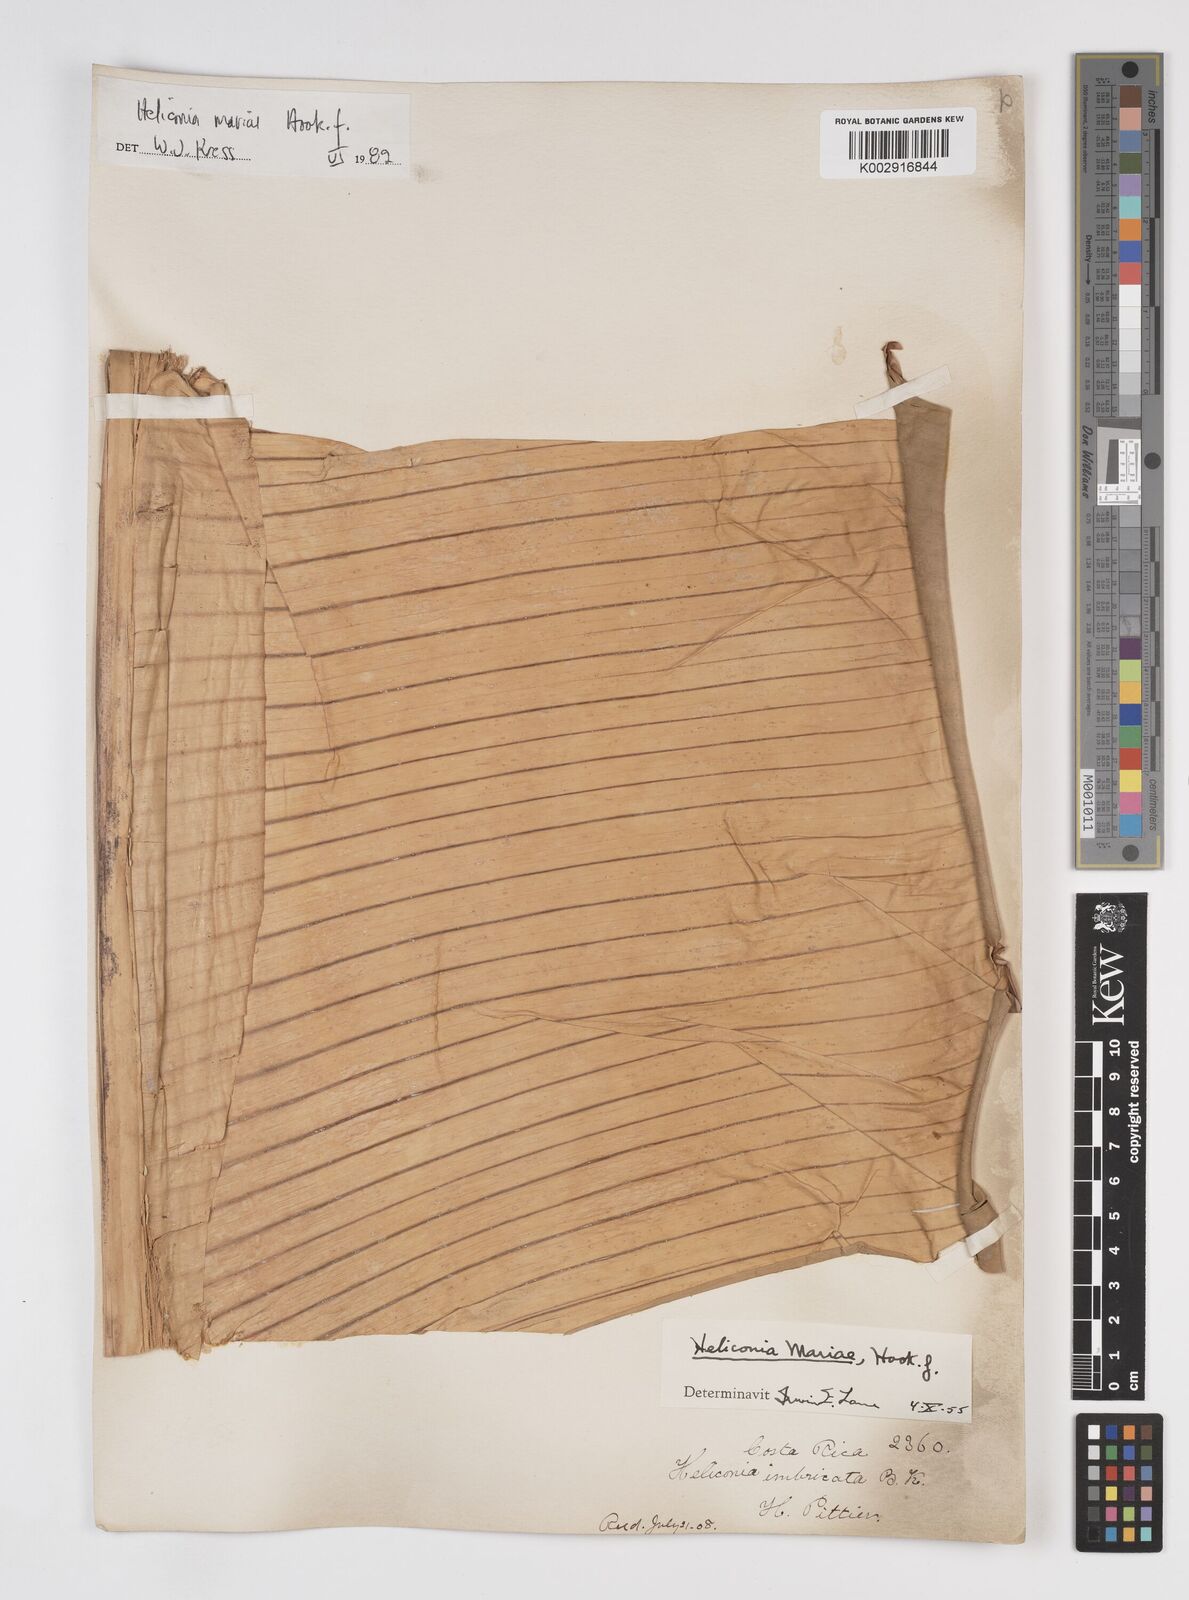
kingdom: Plantae
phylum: Tracheophyta
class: Liliopsida
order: Zingiberales
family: Heliconiaceae
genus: Heliconia
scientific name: Heliconia mariae
